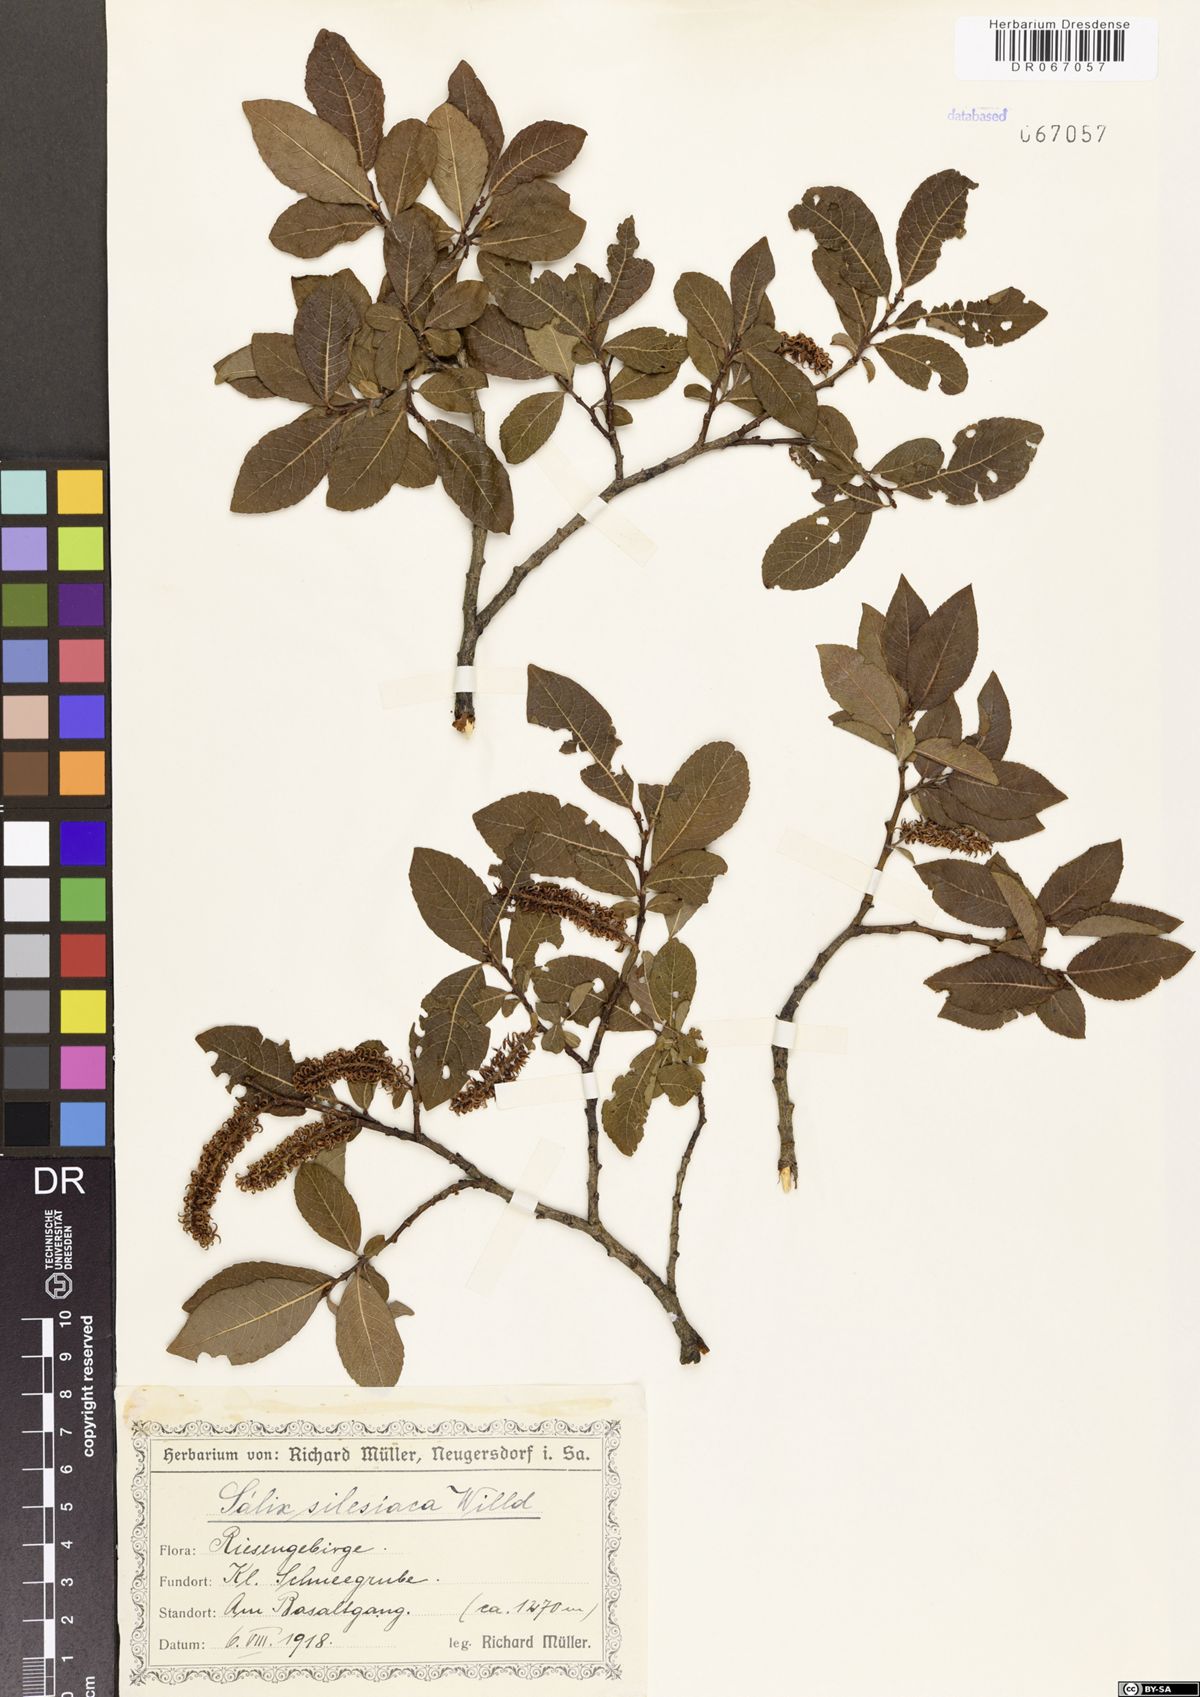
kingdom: Plantae
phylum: Tracheophyta
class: Magnoliopsida
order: Malpighiales
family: Salicaceae
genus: Salix
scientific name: Salix silesiaca
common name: Silesian willow
